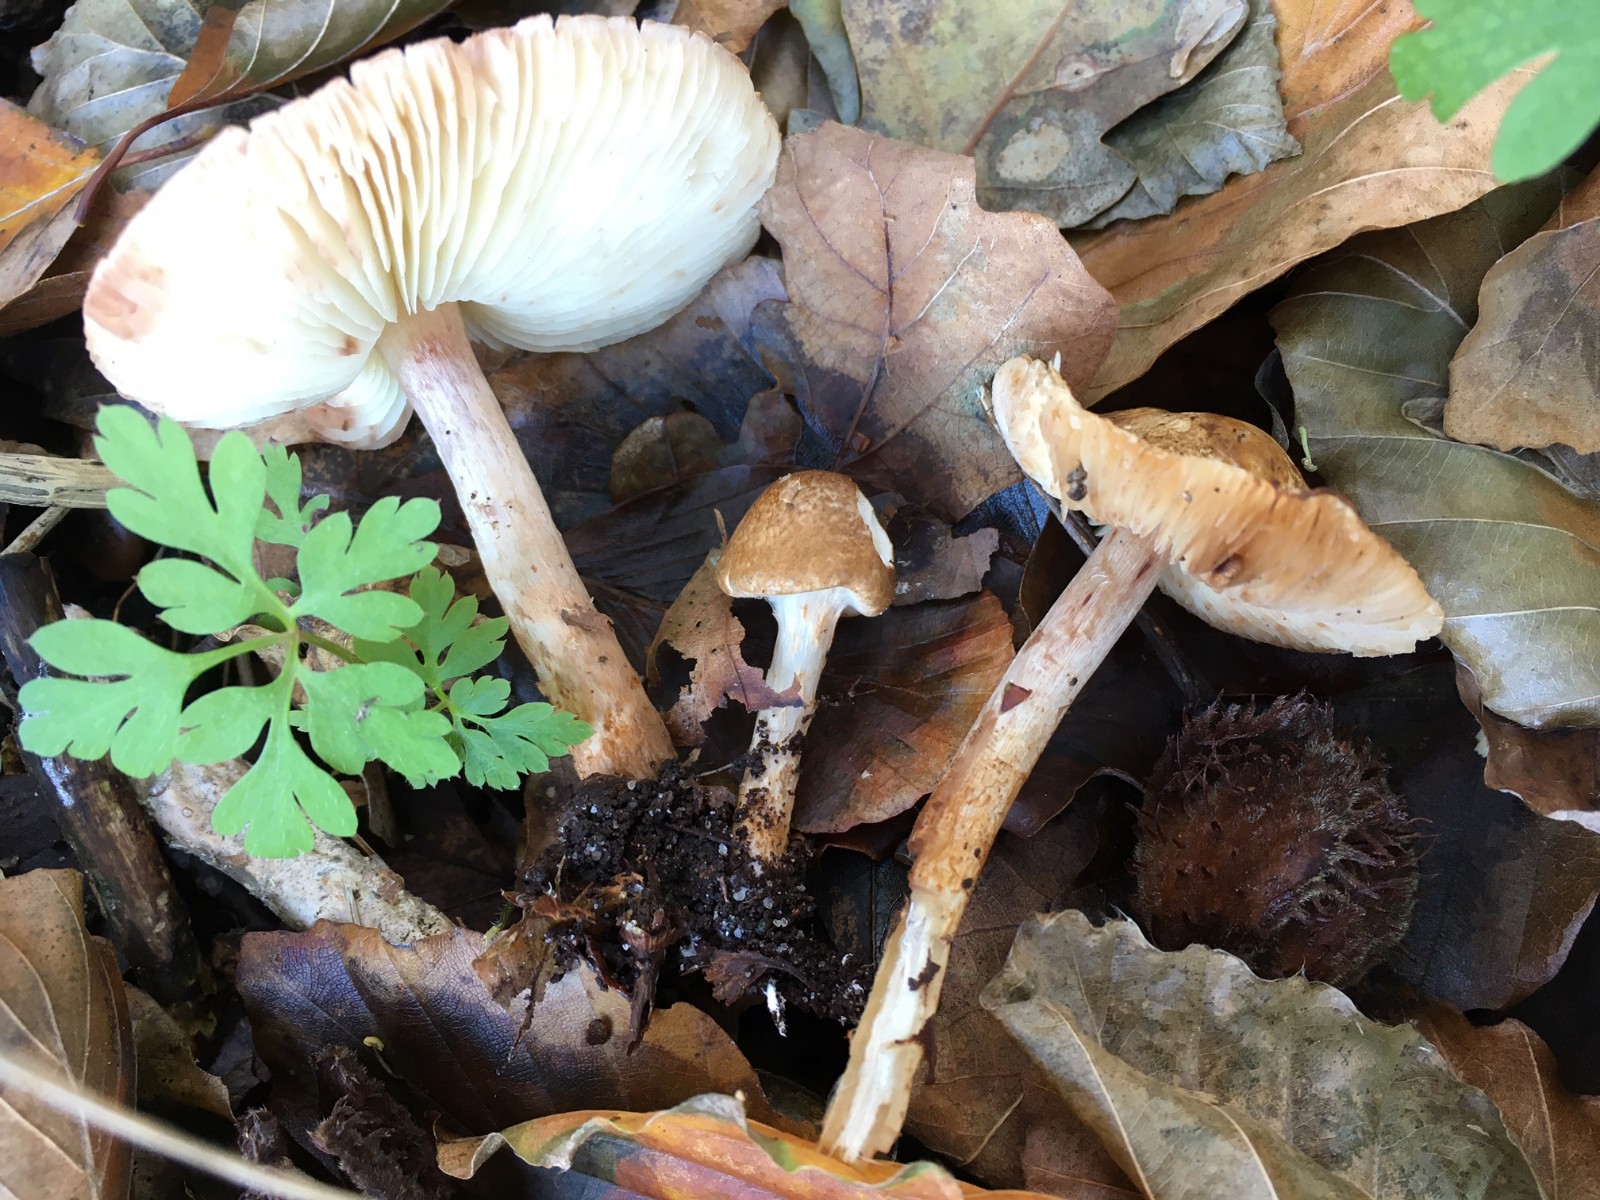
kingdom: Fungi
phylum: Basidiomycota
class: Agaricomycetes
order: Agaricales
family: Agaricaceae
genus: Leucocoprinus
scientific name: Leucocoprinus straminellus
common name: rustbrun parasolhat
